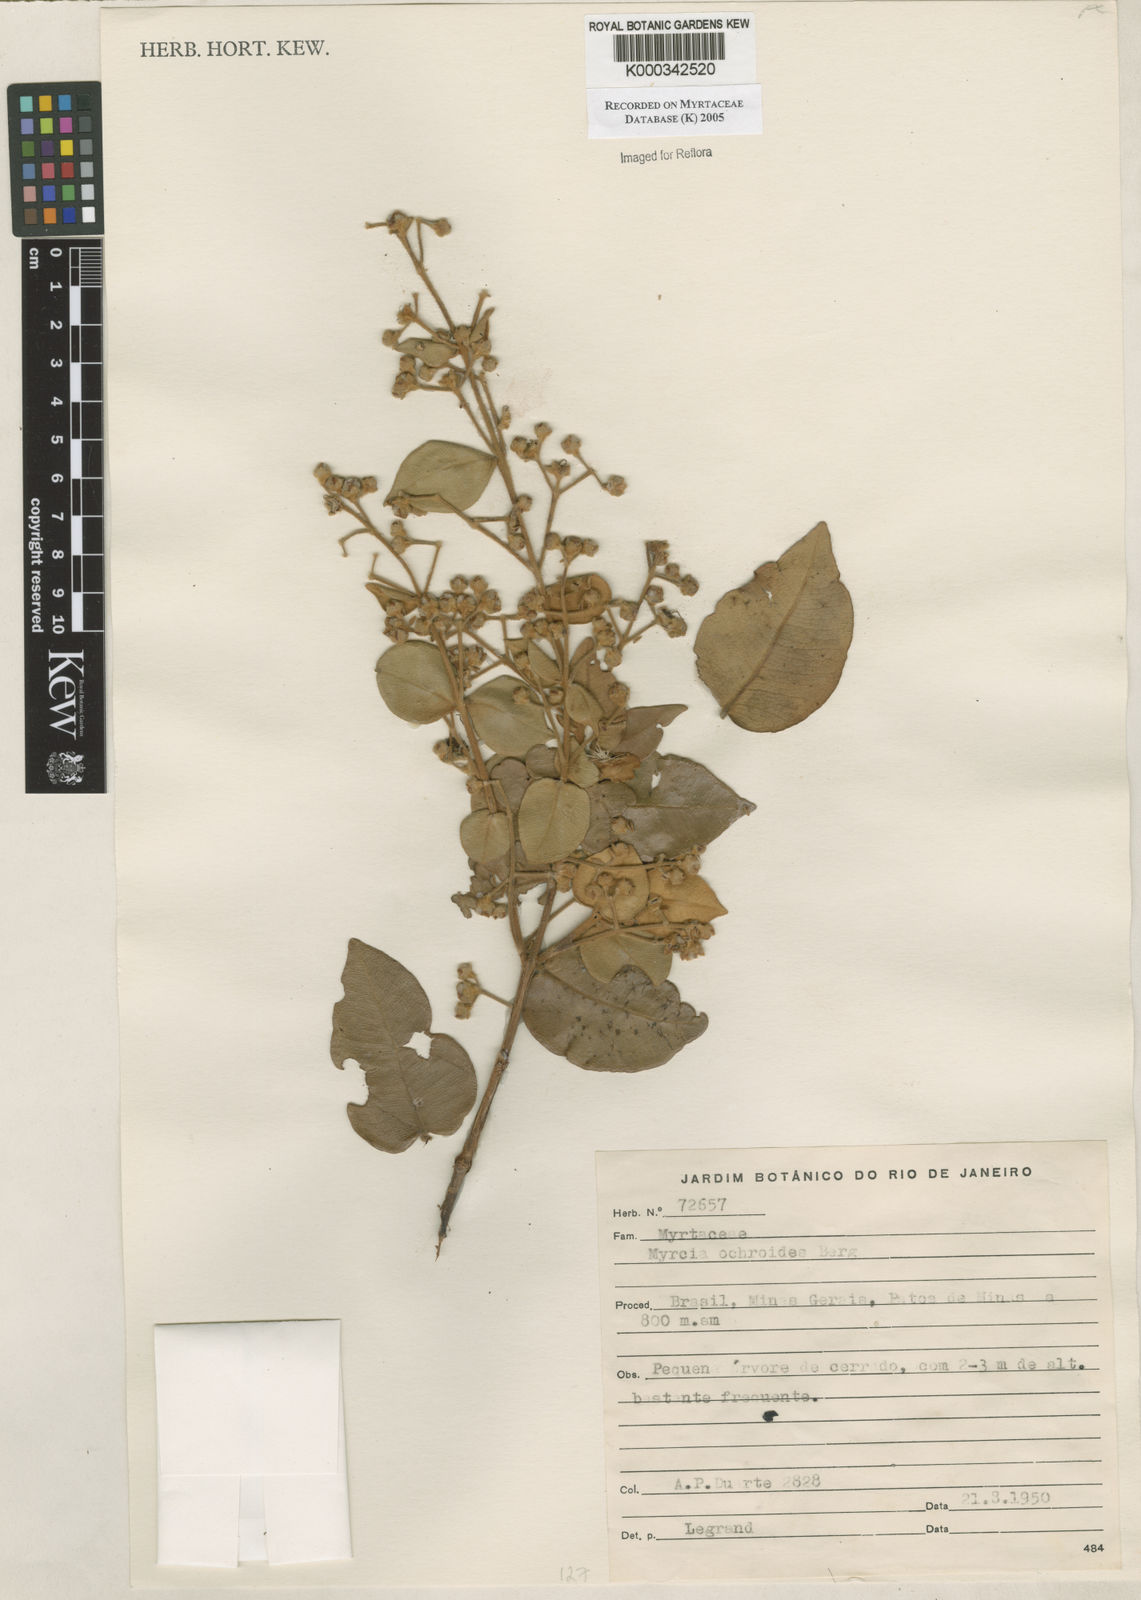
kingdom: Plantae
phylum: Tracheophyta
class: Magnoliopsida
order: Myrtales
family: Myrtaceae
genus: Myrcia
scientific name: Myrcia ochroides
